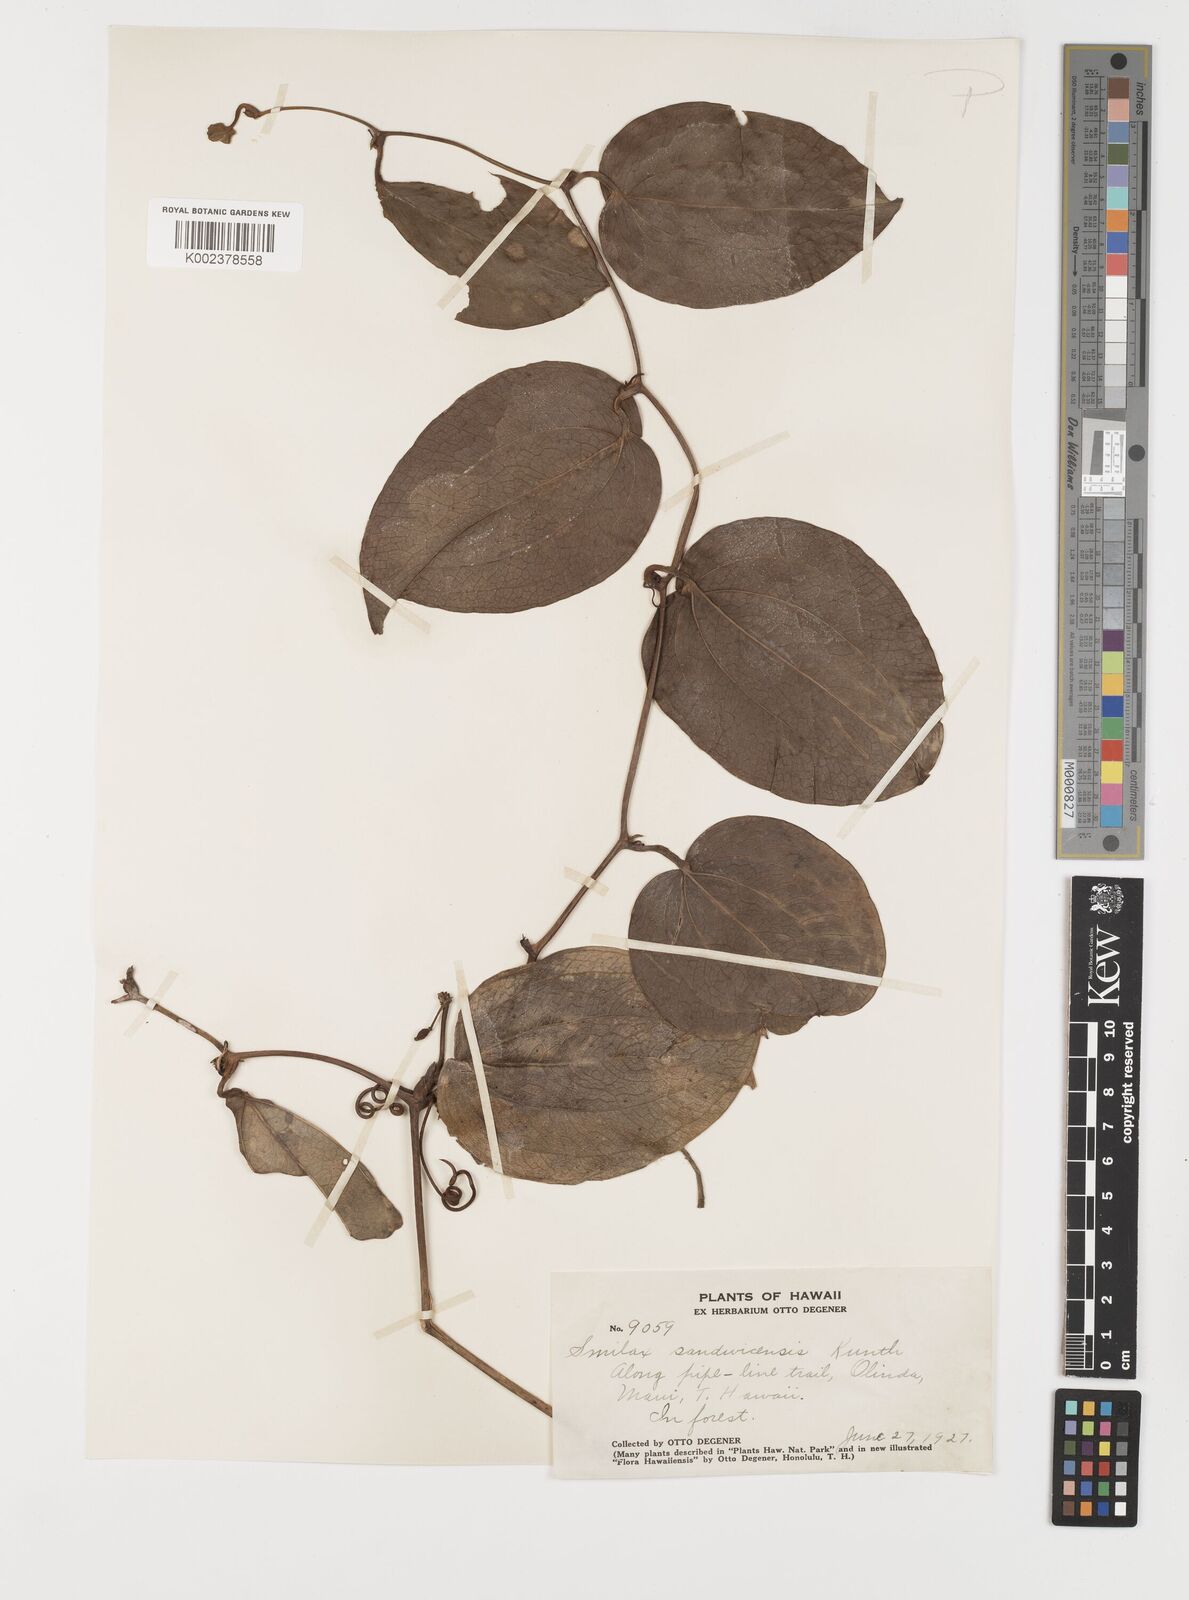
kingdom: Plantae
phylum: Tracheophyta
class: Liliopsida
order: Liliales
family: Smilacaceae
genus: Smilax
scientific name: Smilax melastomifolia
